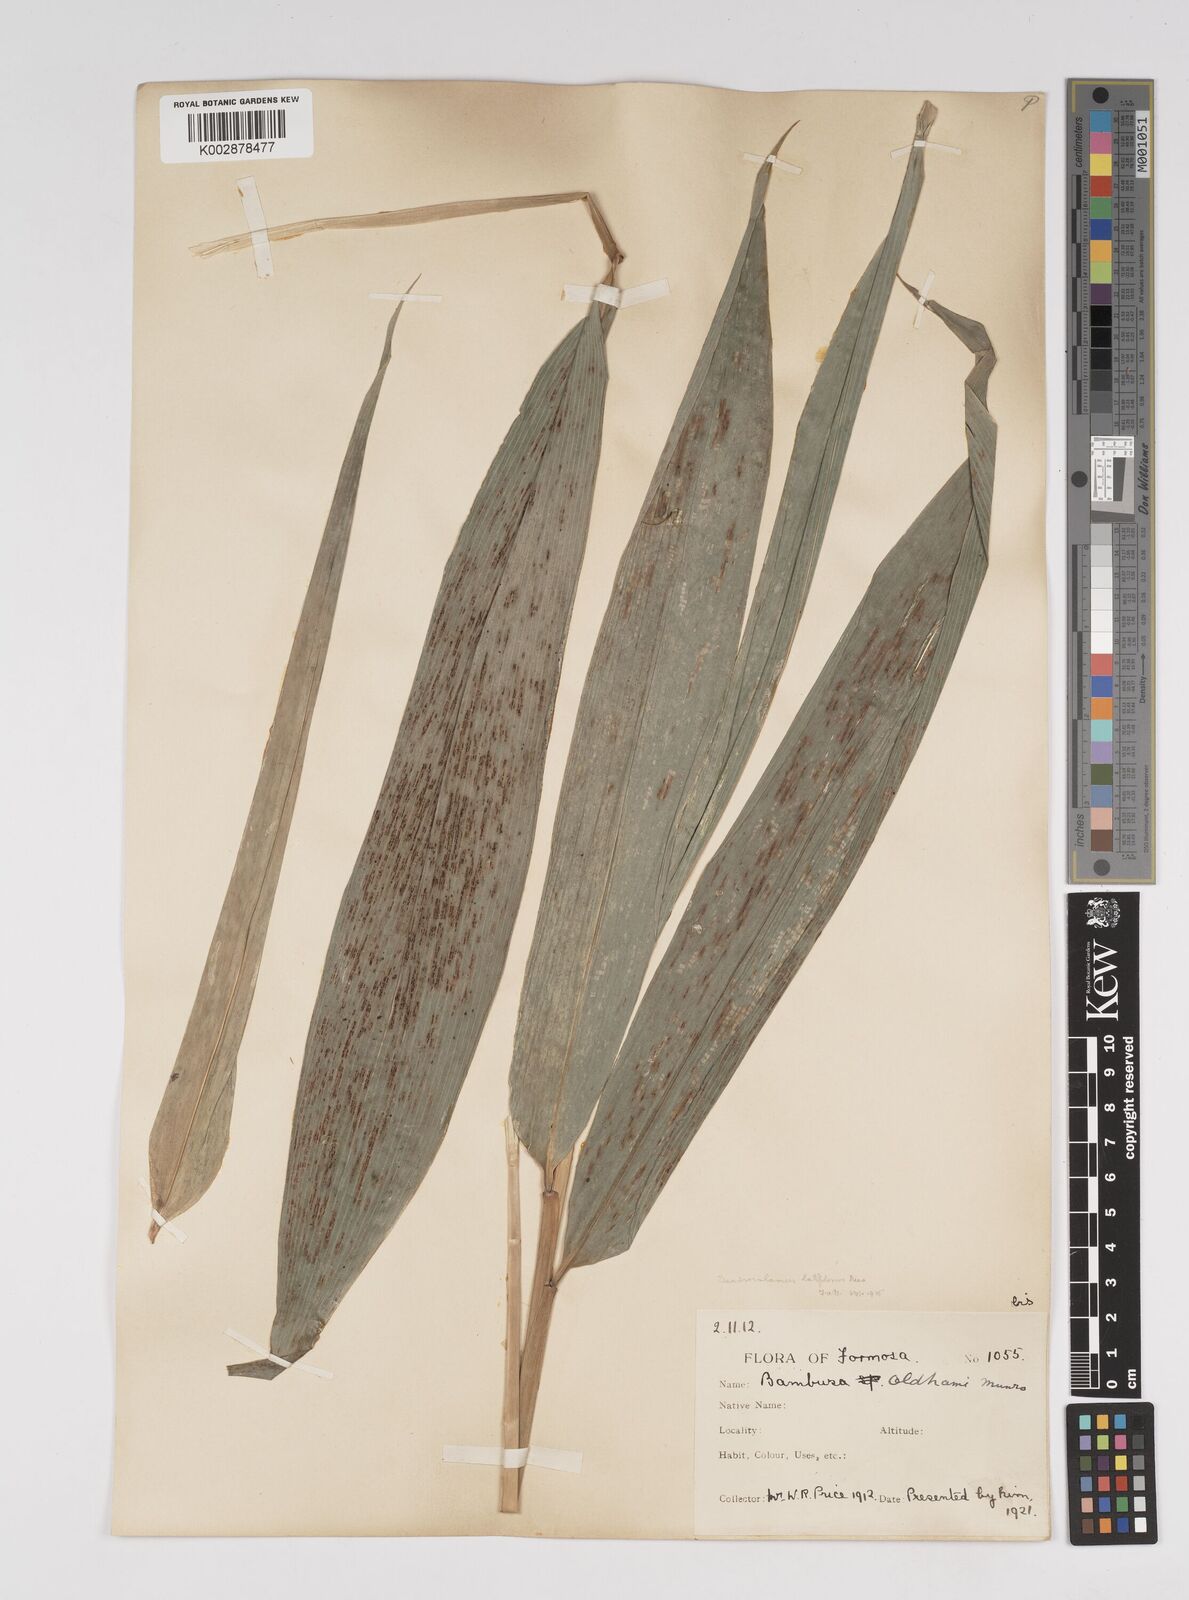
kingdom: Plantae
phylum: Tracheophyta
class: Liliopsida
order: Poales
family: Poaceae
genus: Dendrocalamus
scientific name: Dendrocalamus latiflorus
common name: Giant bamboo
